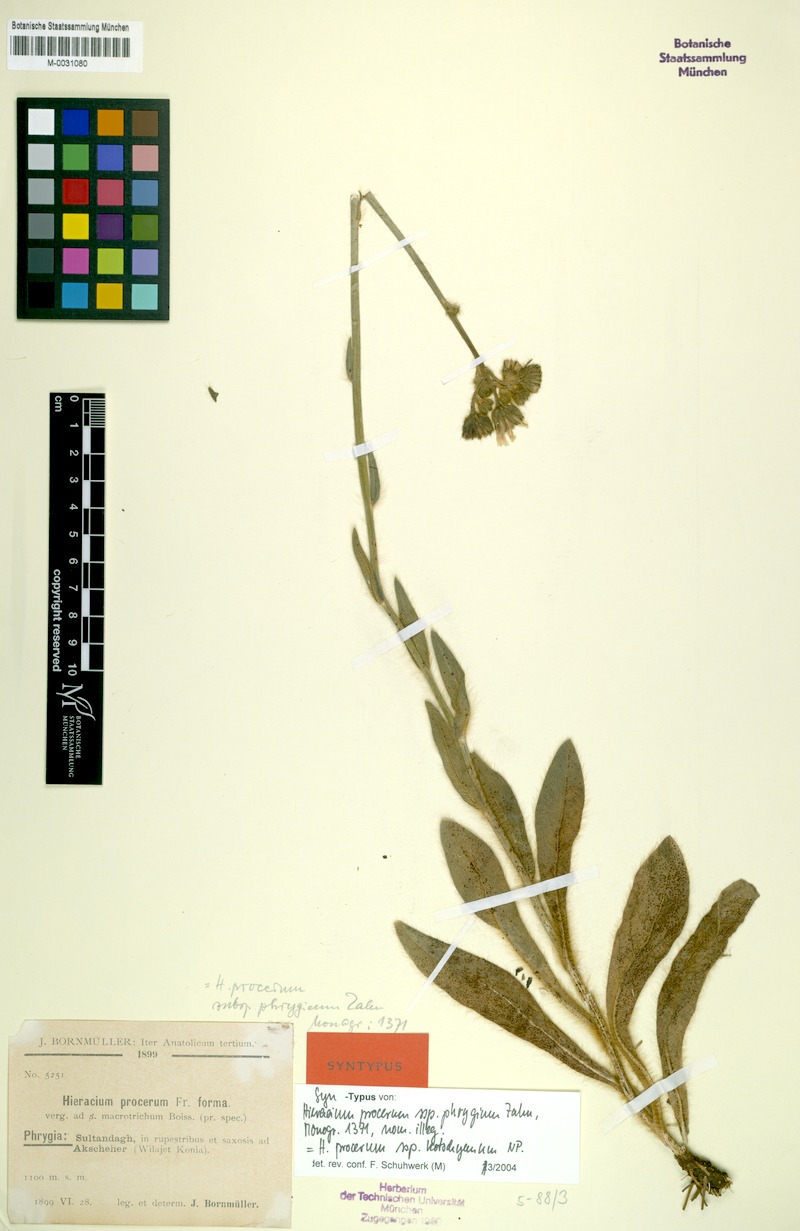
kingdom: Plantae
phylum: Tracheophyta
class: Magnoliopsida
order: Asterales
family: Asteraceae
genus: Pilosella
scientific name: Pilosella procera
